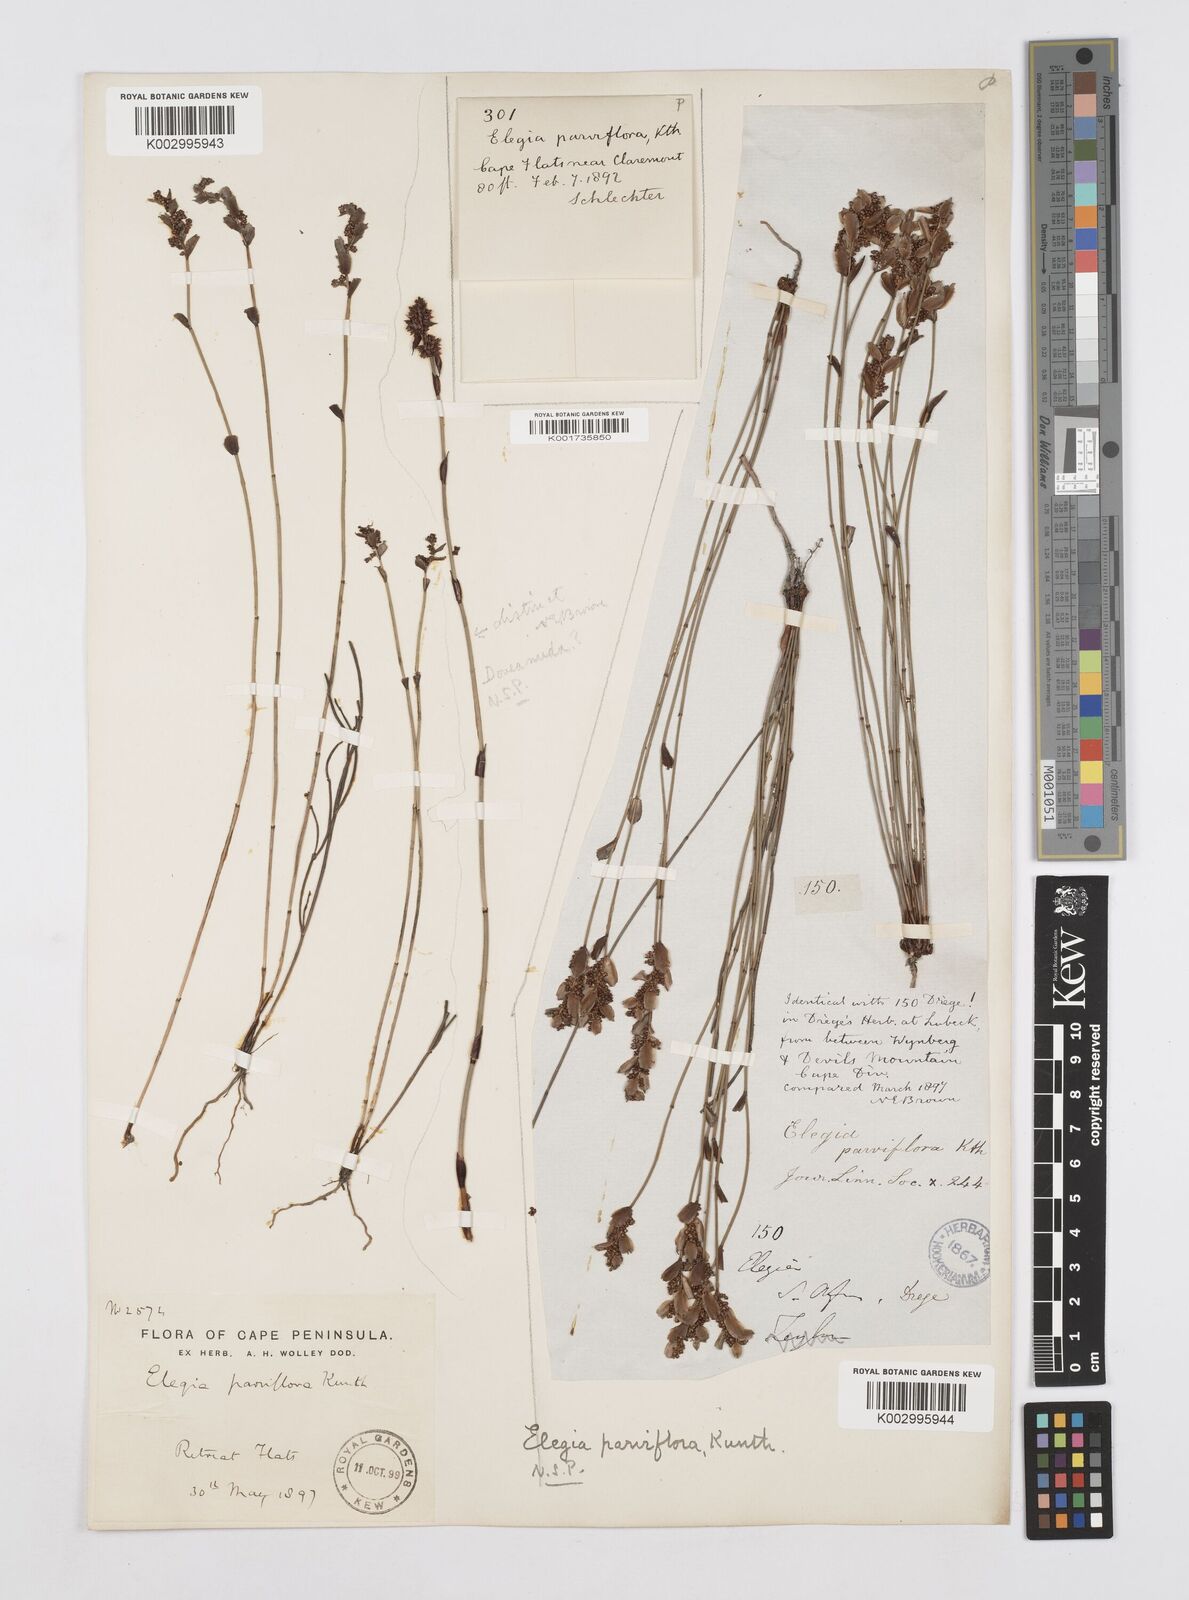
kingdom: Plantae
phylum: Tracheophyta
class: Liliopsida
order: Poales
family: Restionaceae
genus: Cannomois
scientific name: Cannomois parviflora
